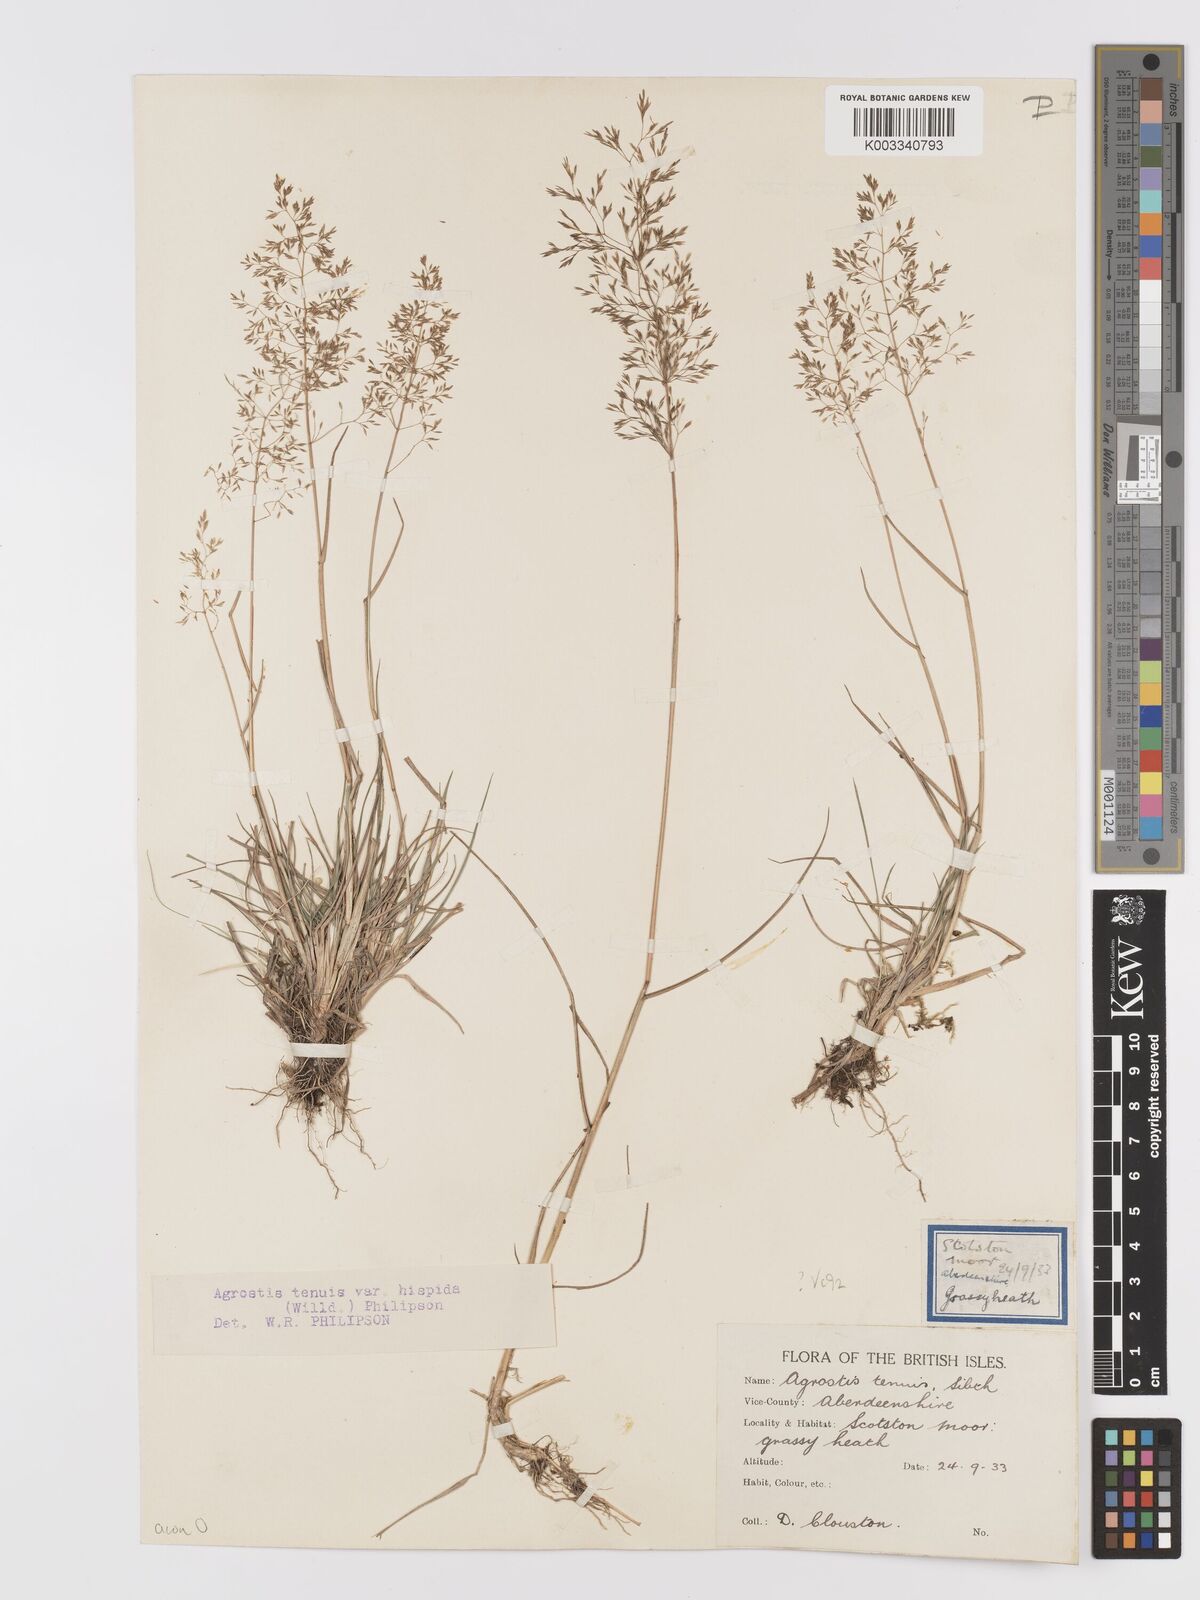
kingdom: Plantae
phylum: Tracheophyta
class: Liliopsida
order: Poales
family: Poaceae
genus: Agrostis
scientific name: Agrostis capillaris
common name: Colonial bentgrass
